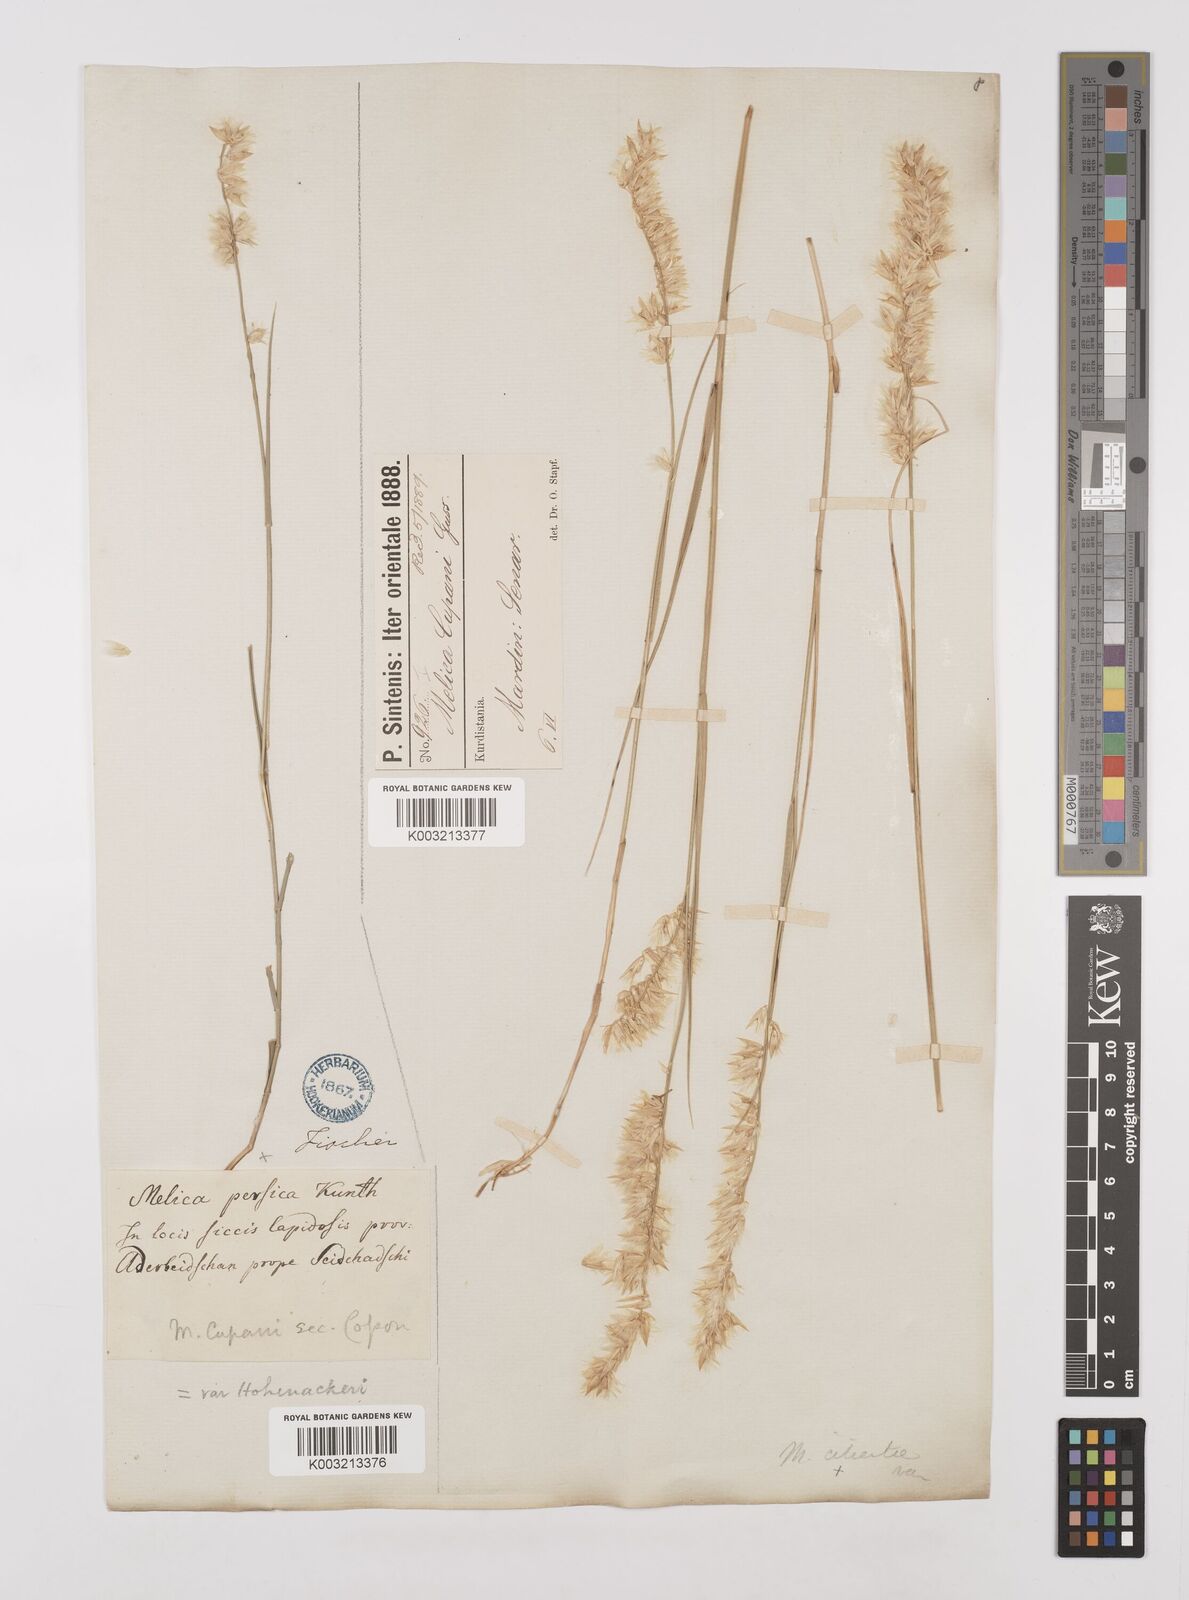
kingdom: Plantae
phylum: Tracheophyta
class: Liliopsida
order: Poales
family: Poaceae
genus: Melica
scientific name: Melica persica
